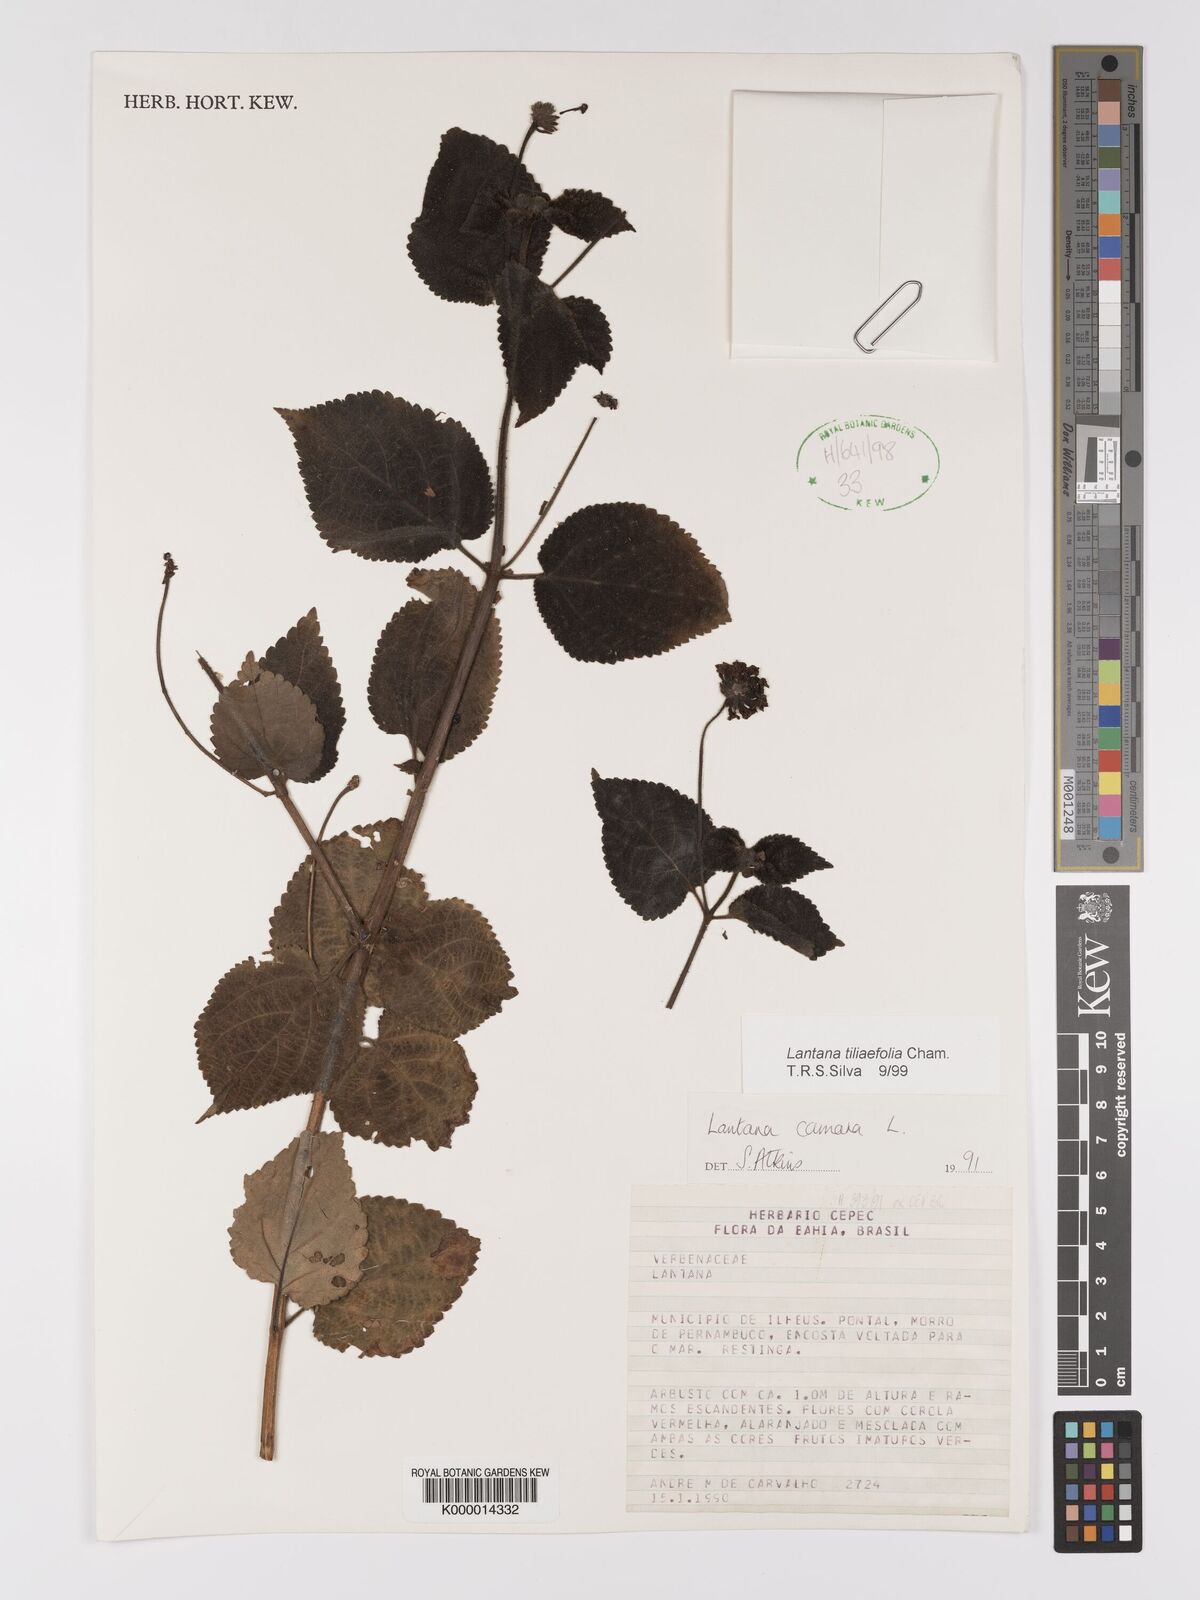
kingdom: Plantae
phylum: Tracheophyta
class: Magnoliopsida
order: Lamiales
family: Verbenaceae
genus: Lantana
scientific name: Lantana
